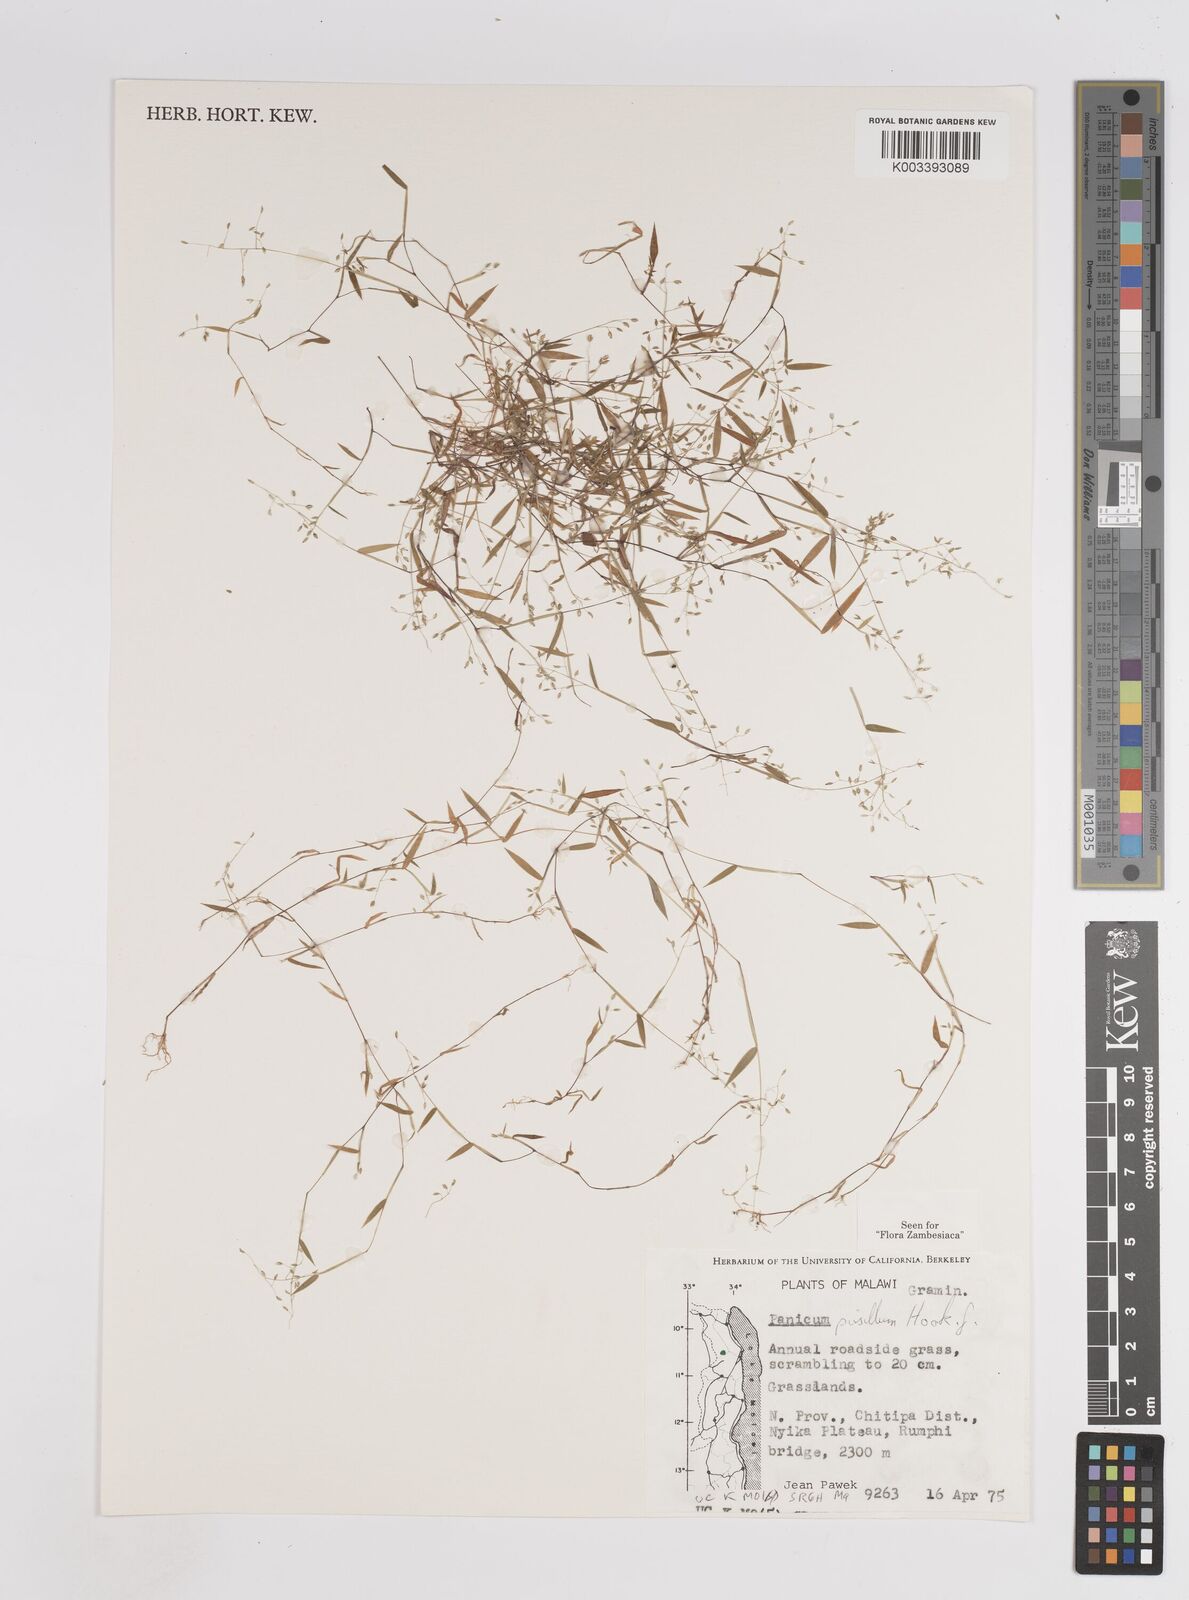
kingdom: Plantae
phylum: Tracheophyta
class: Liliopsida
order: Poales
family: Poaceae
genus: Panicum
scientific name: Panicum pusillum
